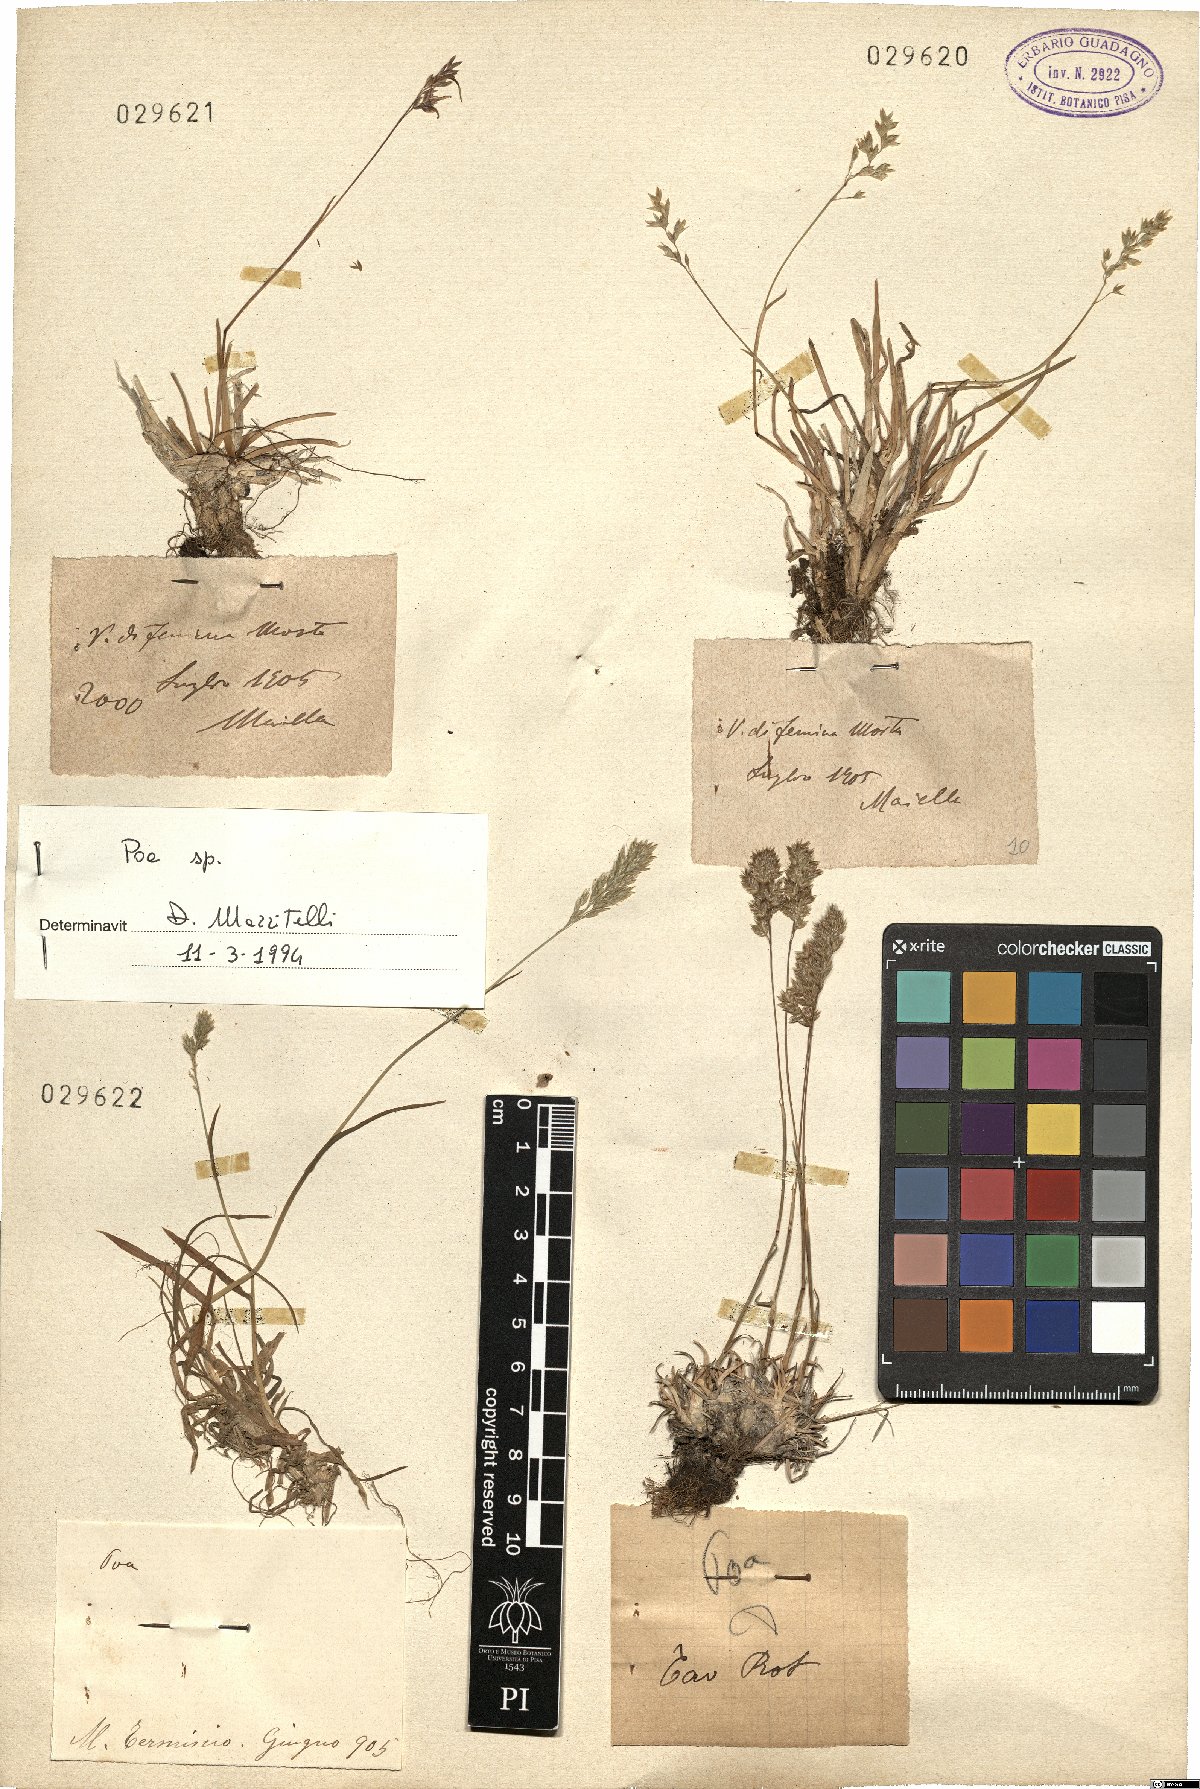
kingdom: Plantae
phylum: Tracheophyta
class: Liliopsida
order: Poales
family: Poaceae
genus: Poa
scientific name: Poa
